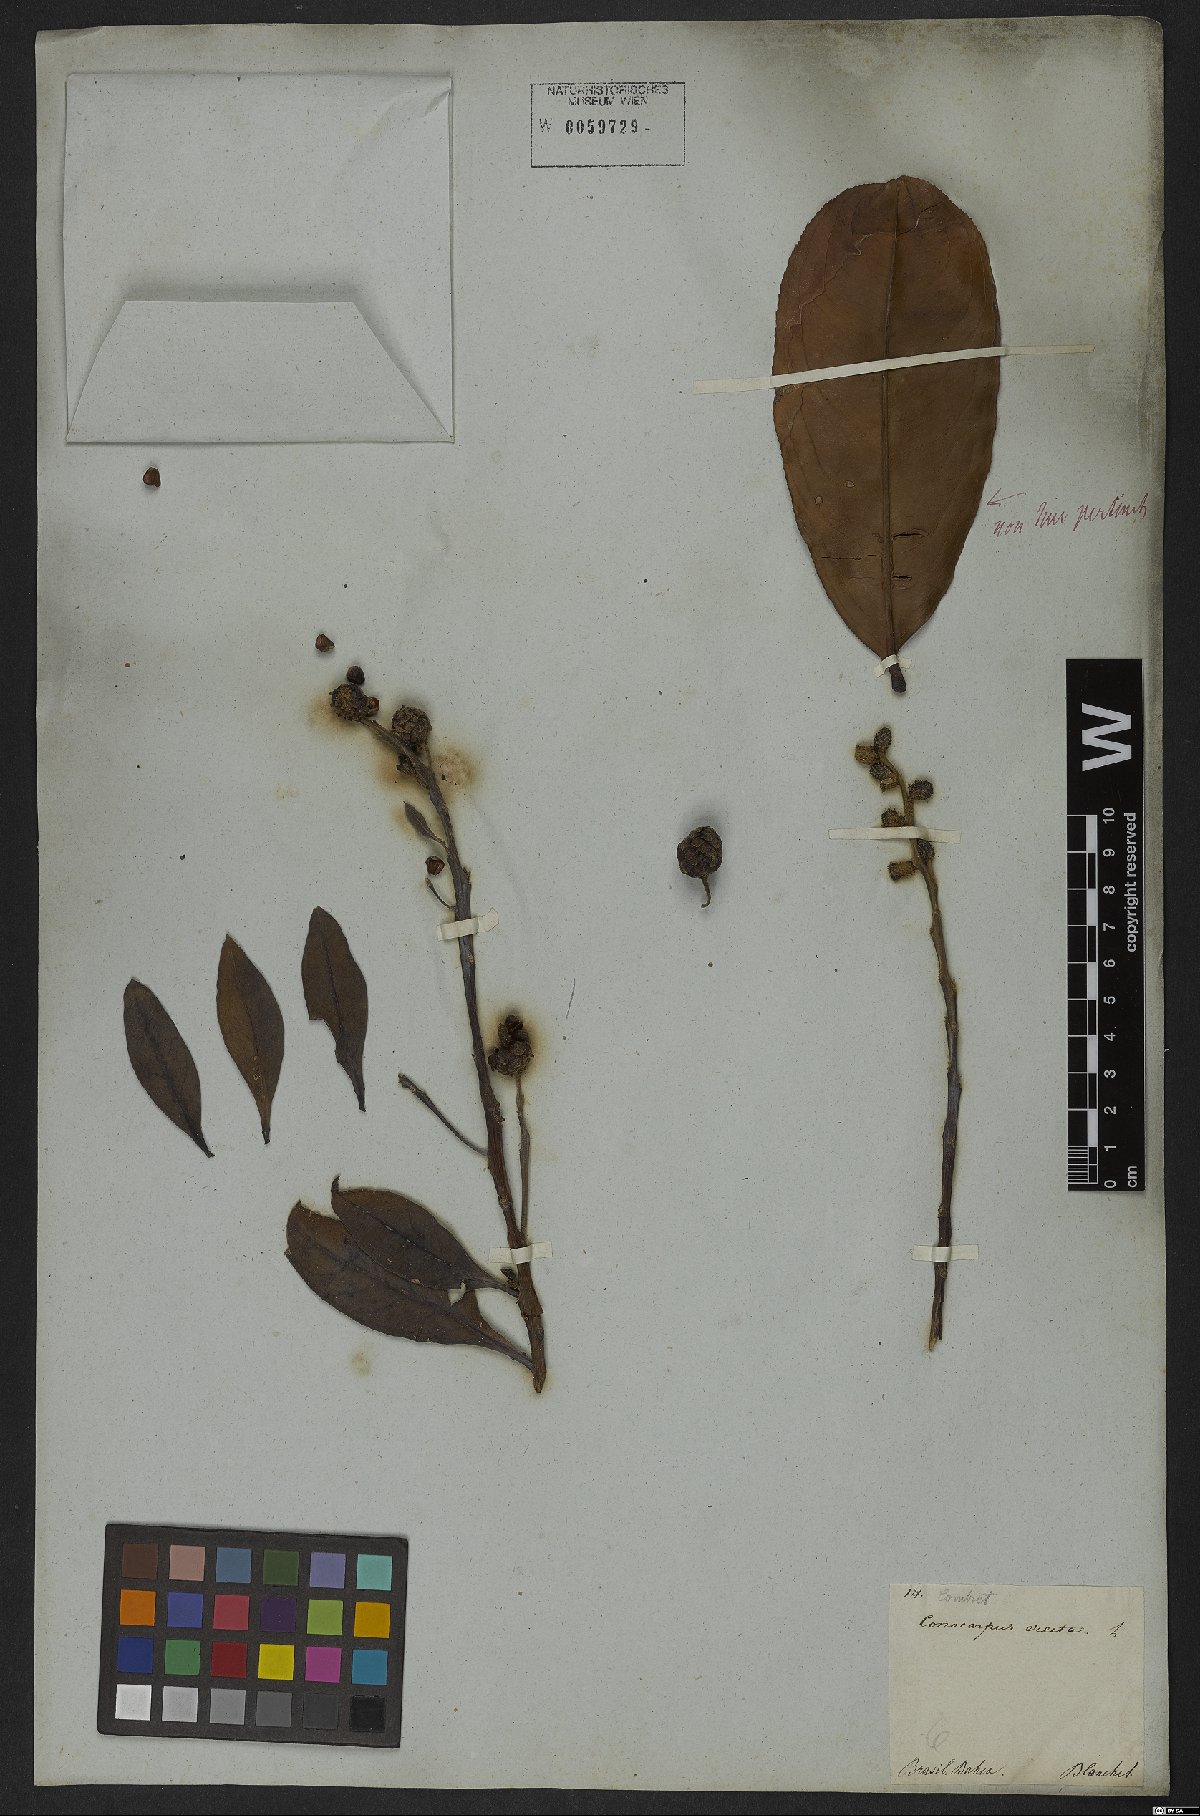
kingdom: Plantae
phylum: Tracheophyta
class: Magnoliopsida
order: Myrtales
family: Combretaceae
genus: Conocarpus
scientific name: Conocarpus erectus
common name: Button mangrove
